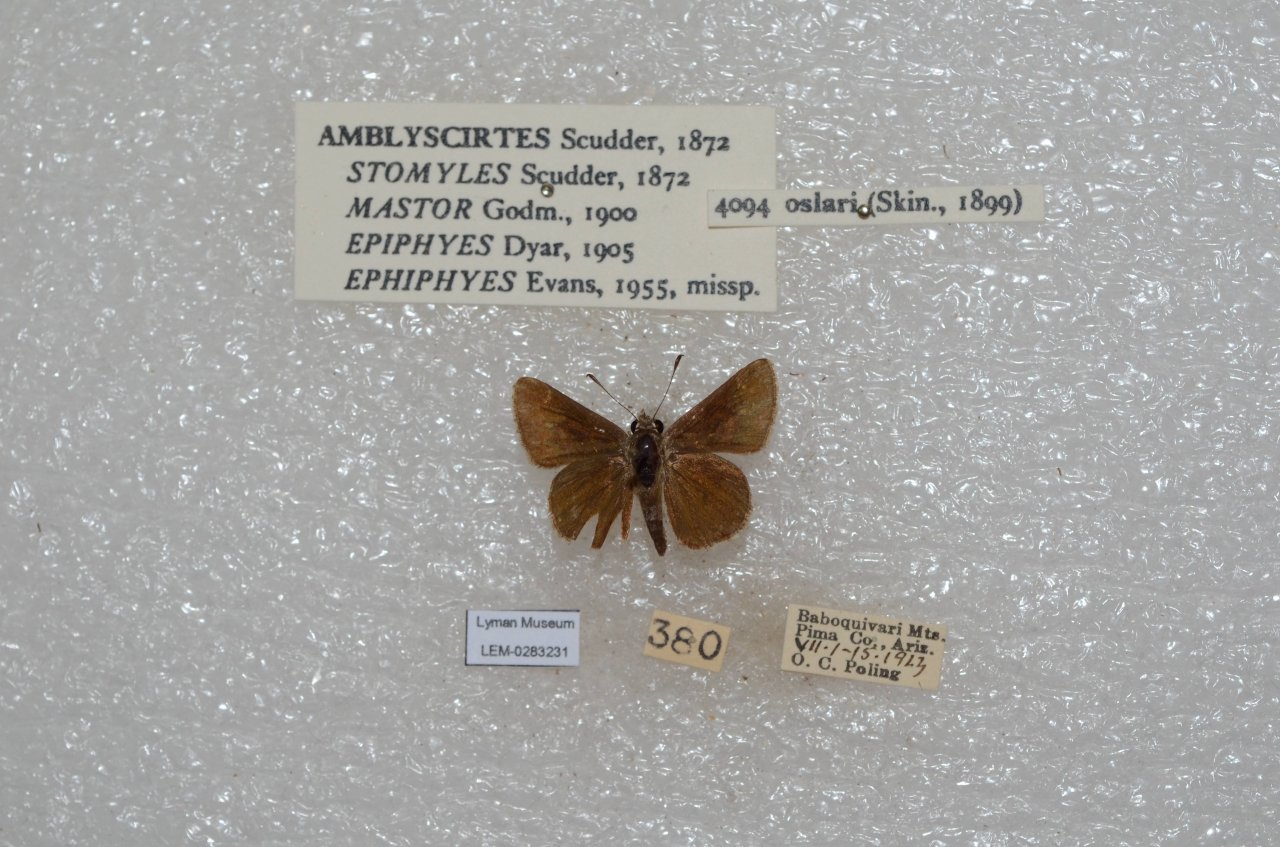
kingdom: Animalia
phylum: Arthropoda
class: Insecta
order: Lepidoptera
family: Hesperiidae
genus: Mastor
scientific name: Mastor oslari
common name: Oslar's Roadside-Skipper
